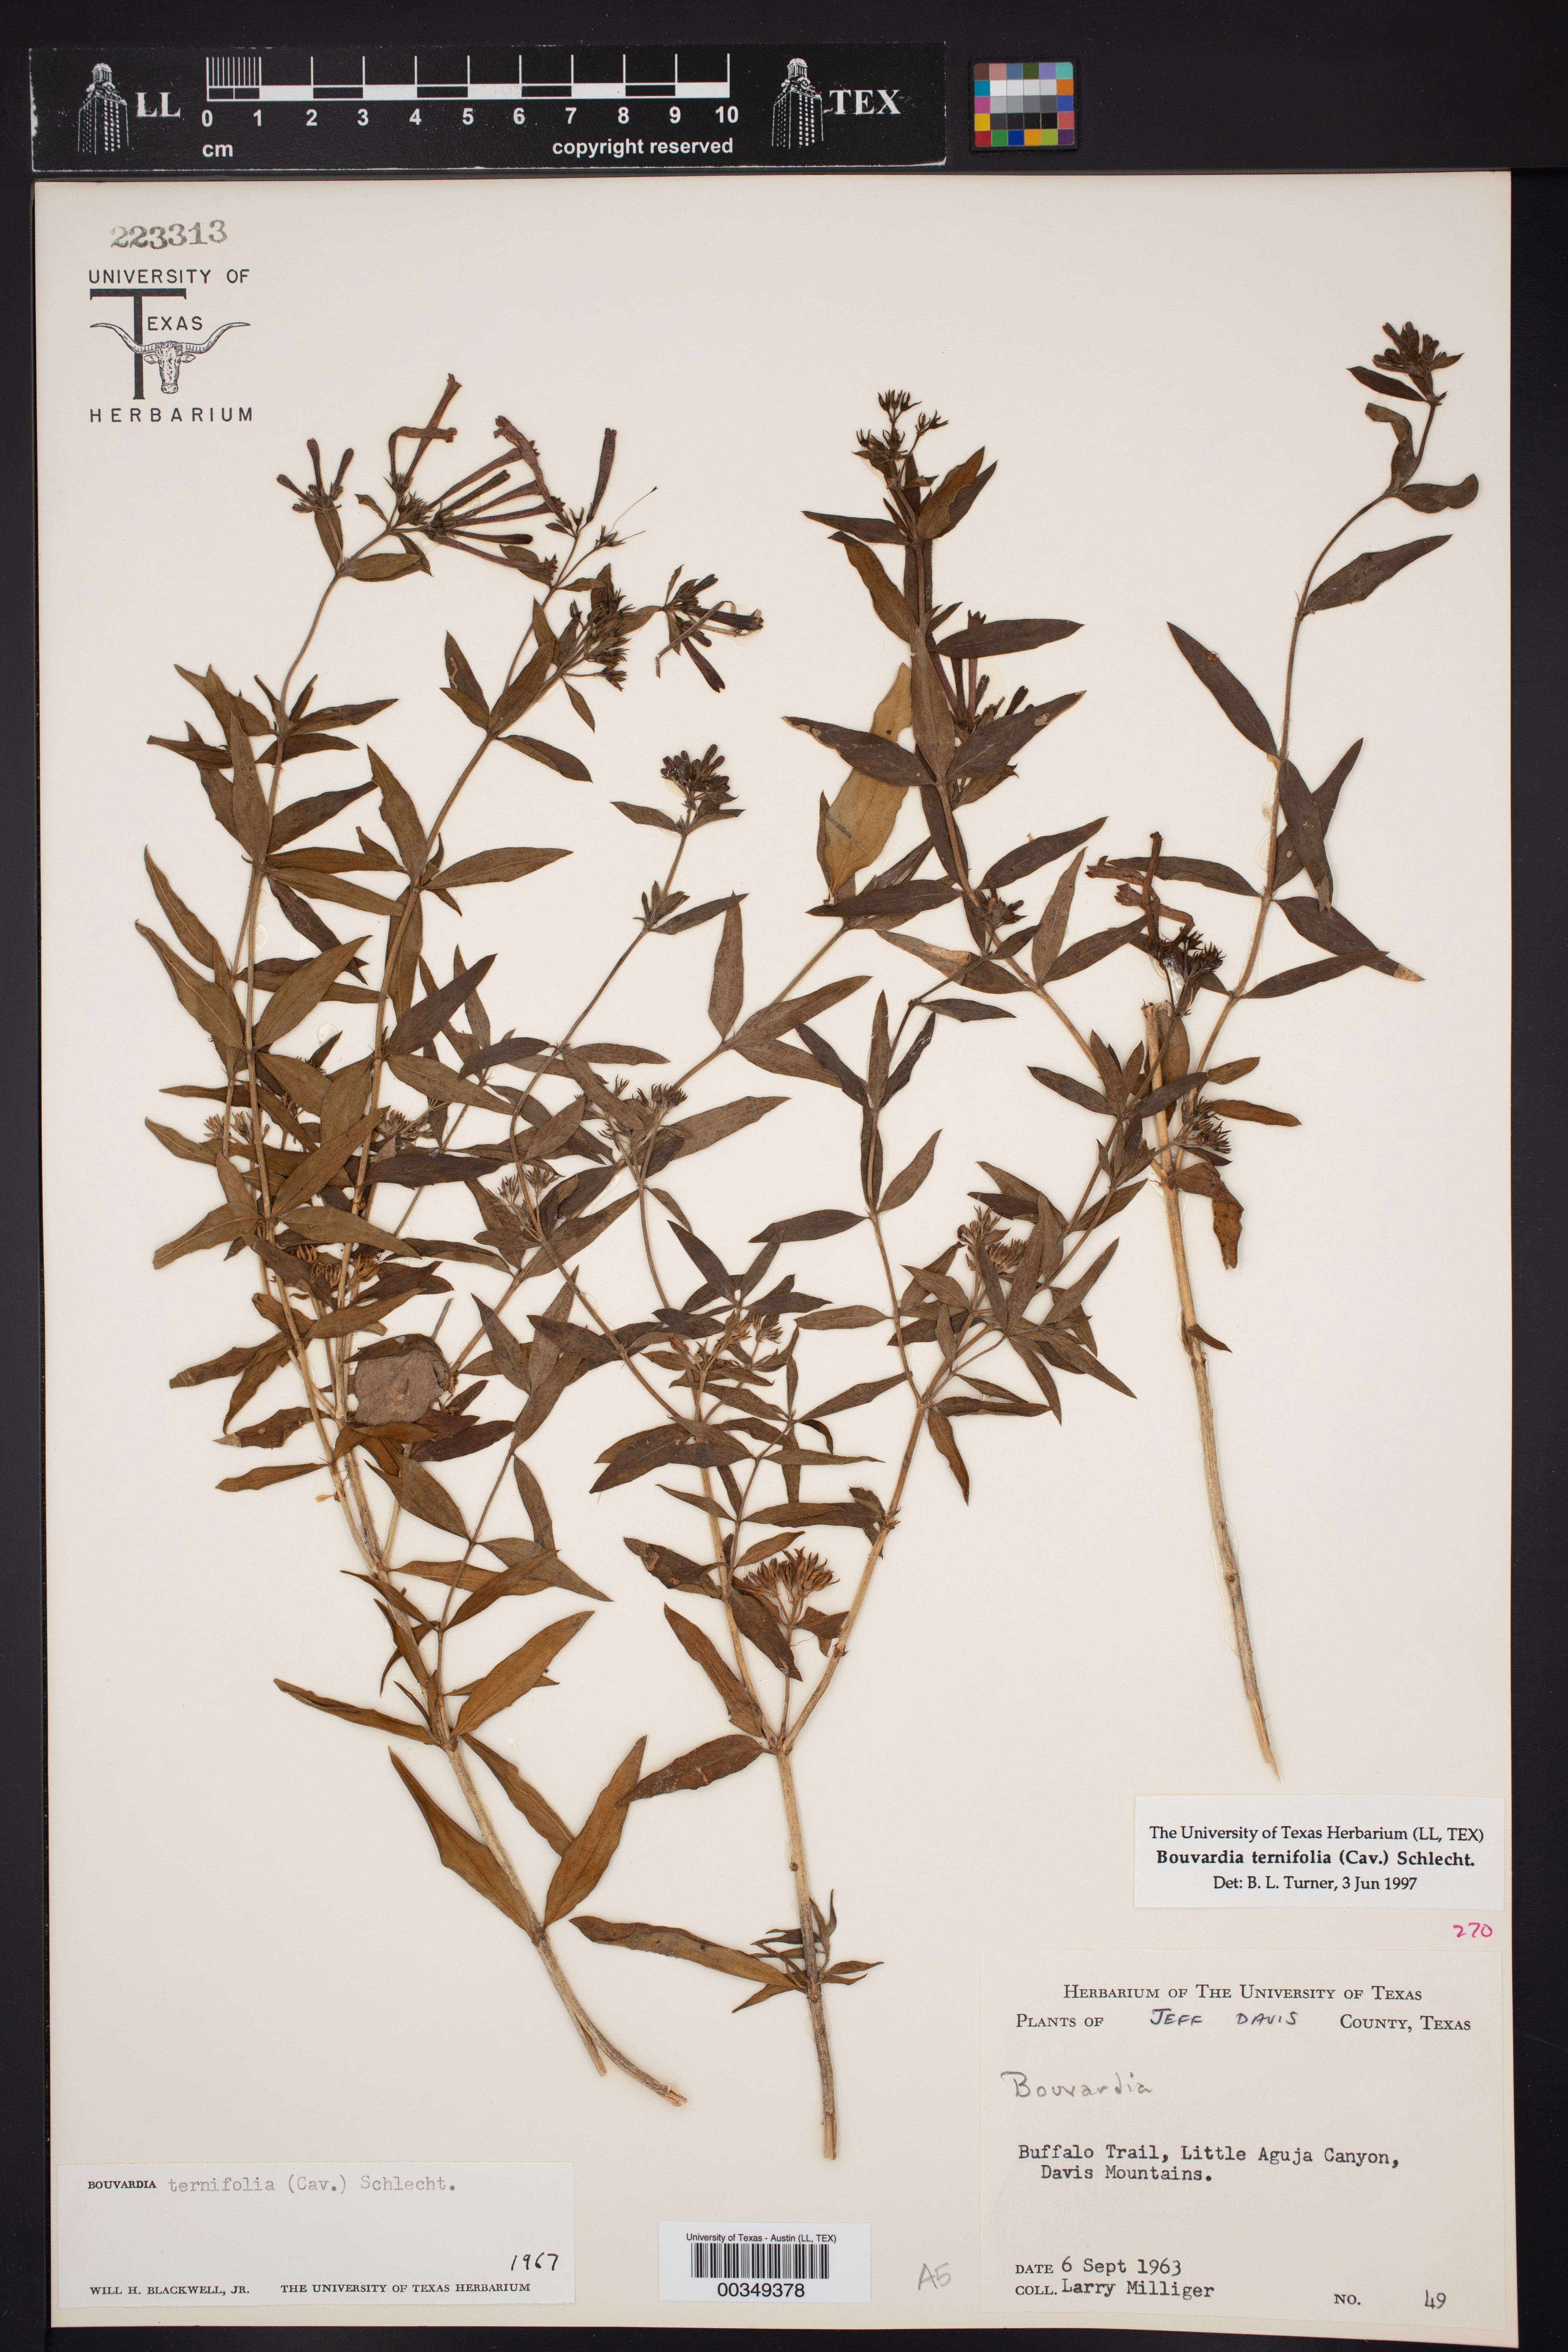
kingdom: Plantae
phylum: Tracheophyta
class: Magnoliopsida
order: Gentianales
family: Rubiaceae
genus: Bouvardia
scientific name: Bouvardia ternifolia
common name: Scarlet bouvardia
